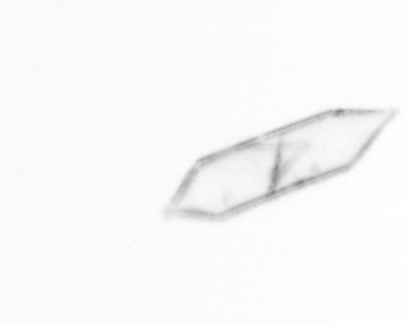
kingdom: Chromista
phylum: Ochrophyta
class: Bacillariophyceae
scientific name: Bacillariophyceae
